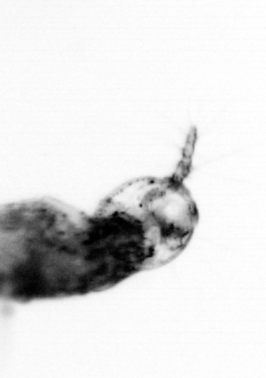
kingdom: Animalia
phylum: Arthropoda
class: Copepoda
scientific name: Copepoda
